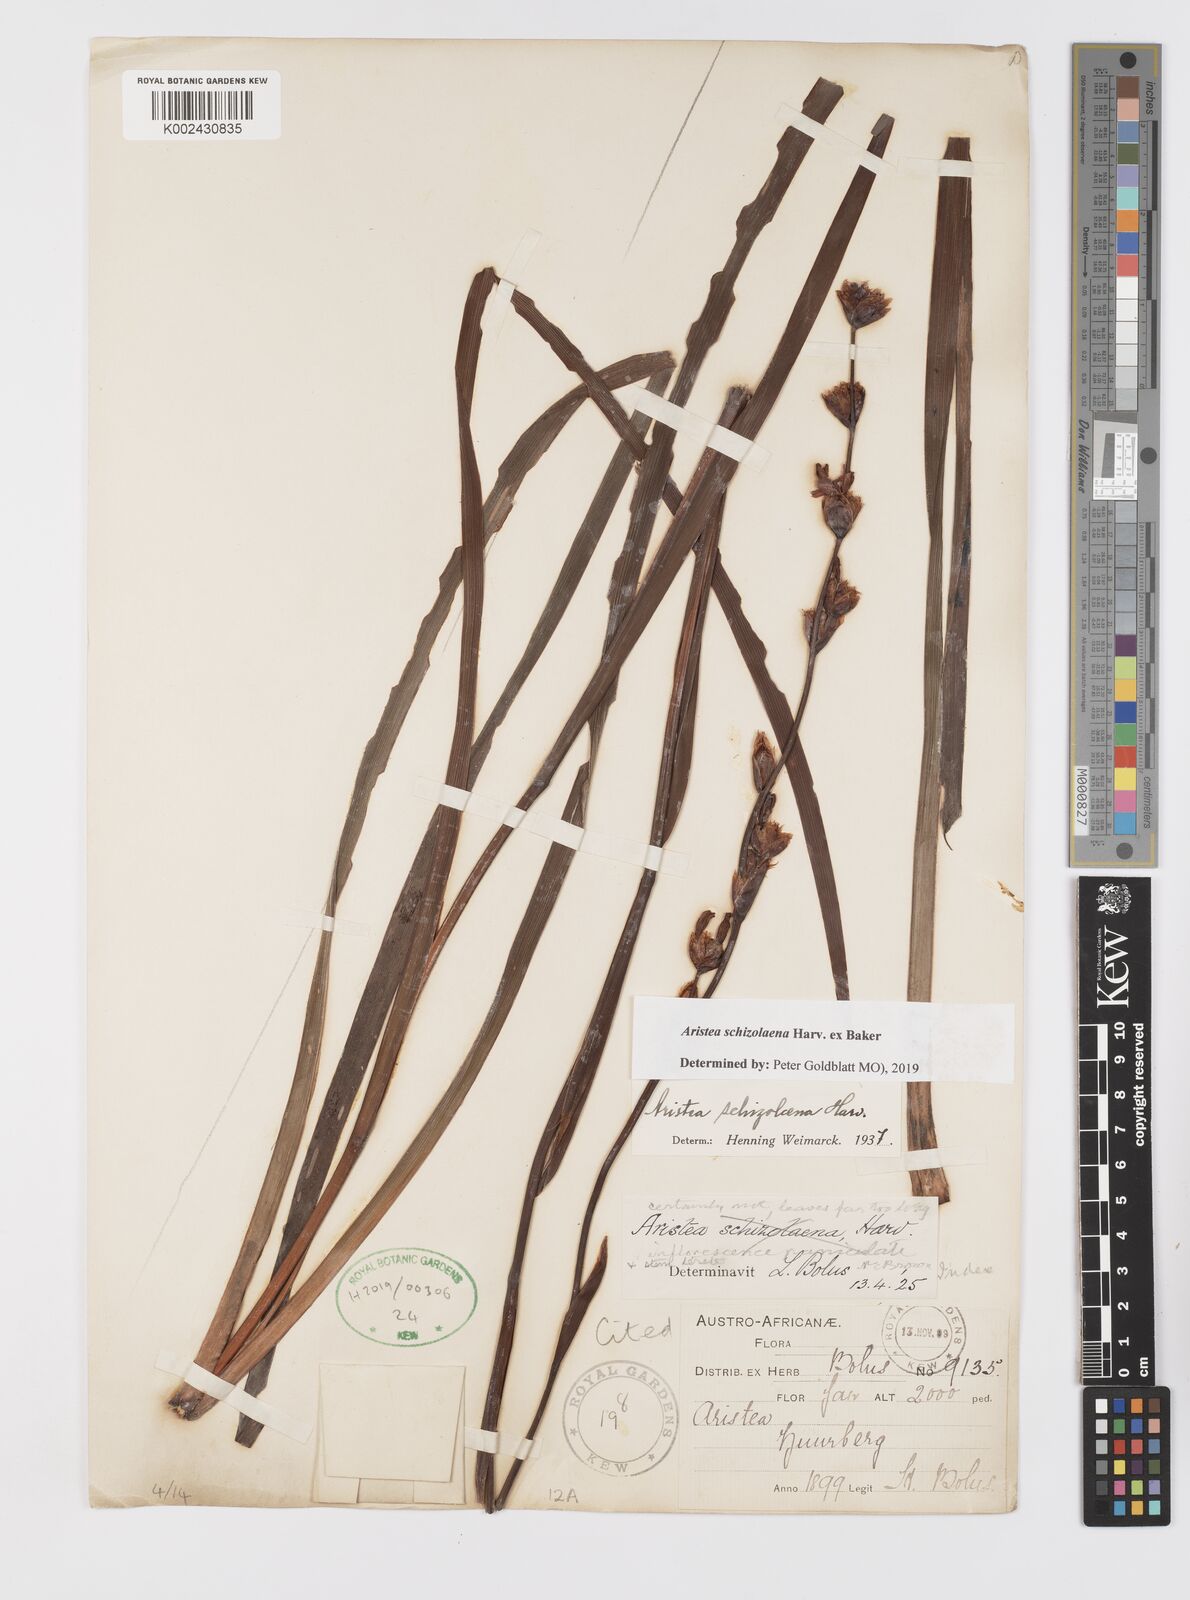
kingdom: Plantae
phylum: Tracheophyta
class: Liliopsida
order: Asparagales
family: Iridaceae
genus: Aristea
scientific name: Aristea schizolaena
